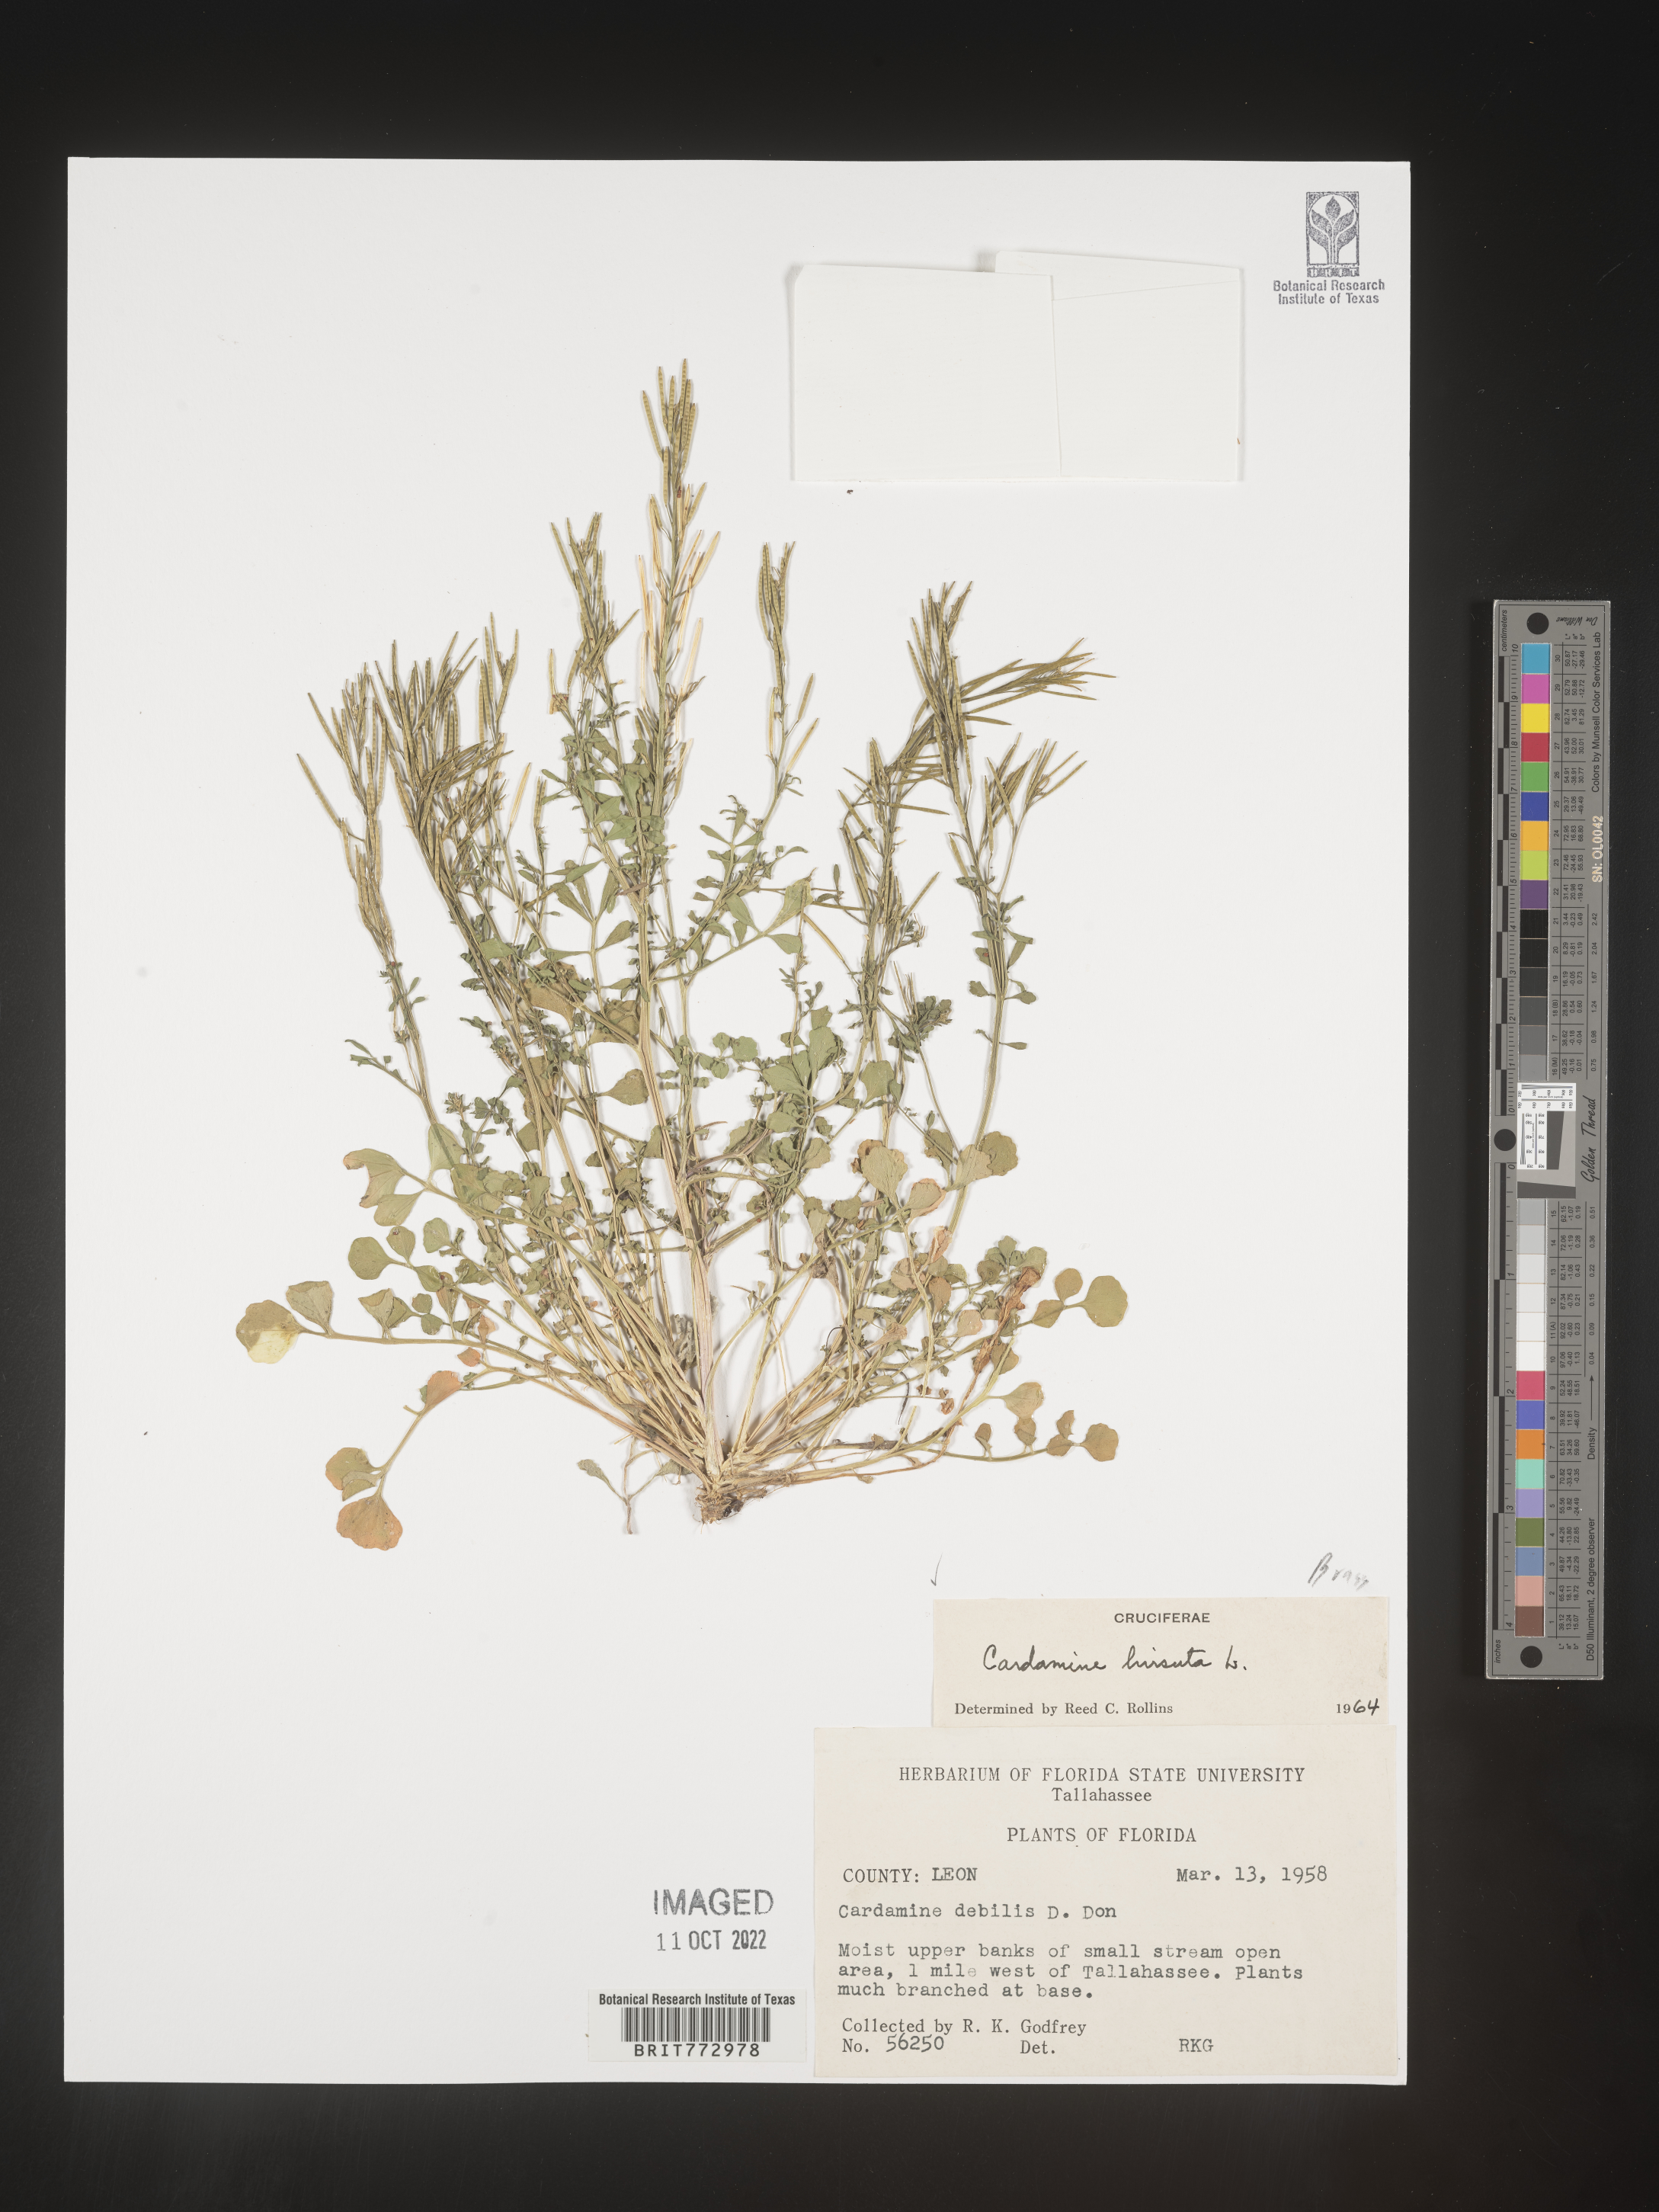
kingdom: Plantae
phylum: Tracheophyta
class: Magnoliopsida
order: Brassicales
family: Brassicaceae
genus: Cardamine
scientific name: Cardamine hirsuta
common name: Hairy bittercress
